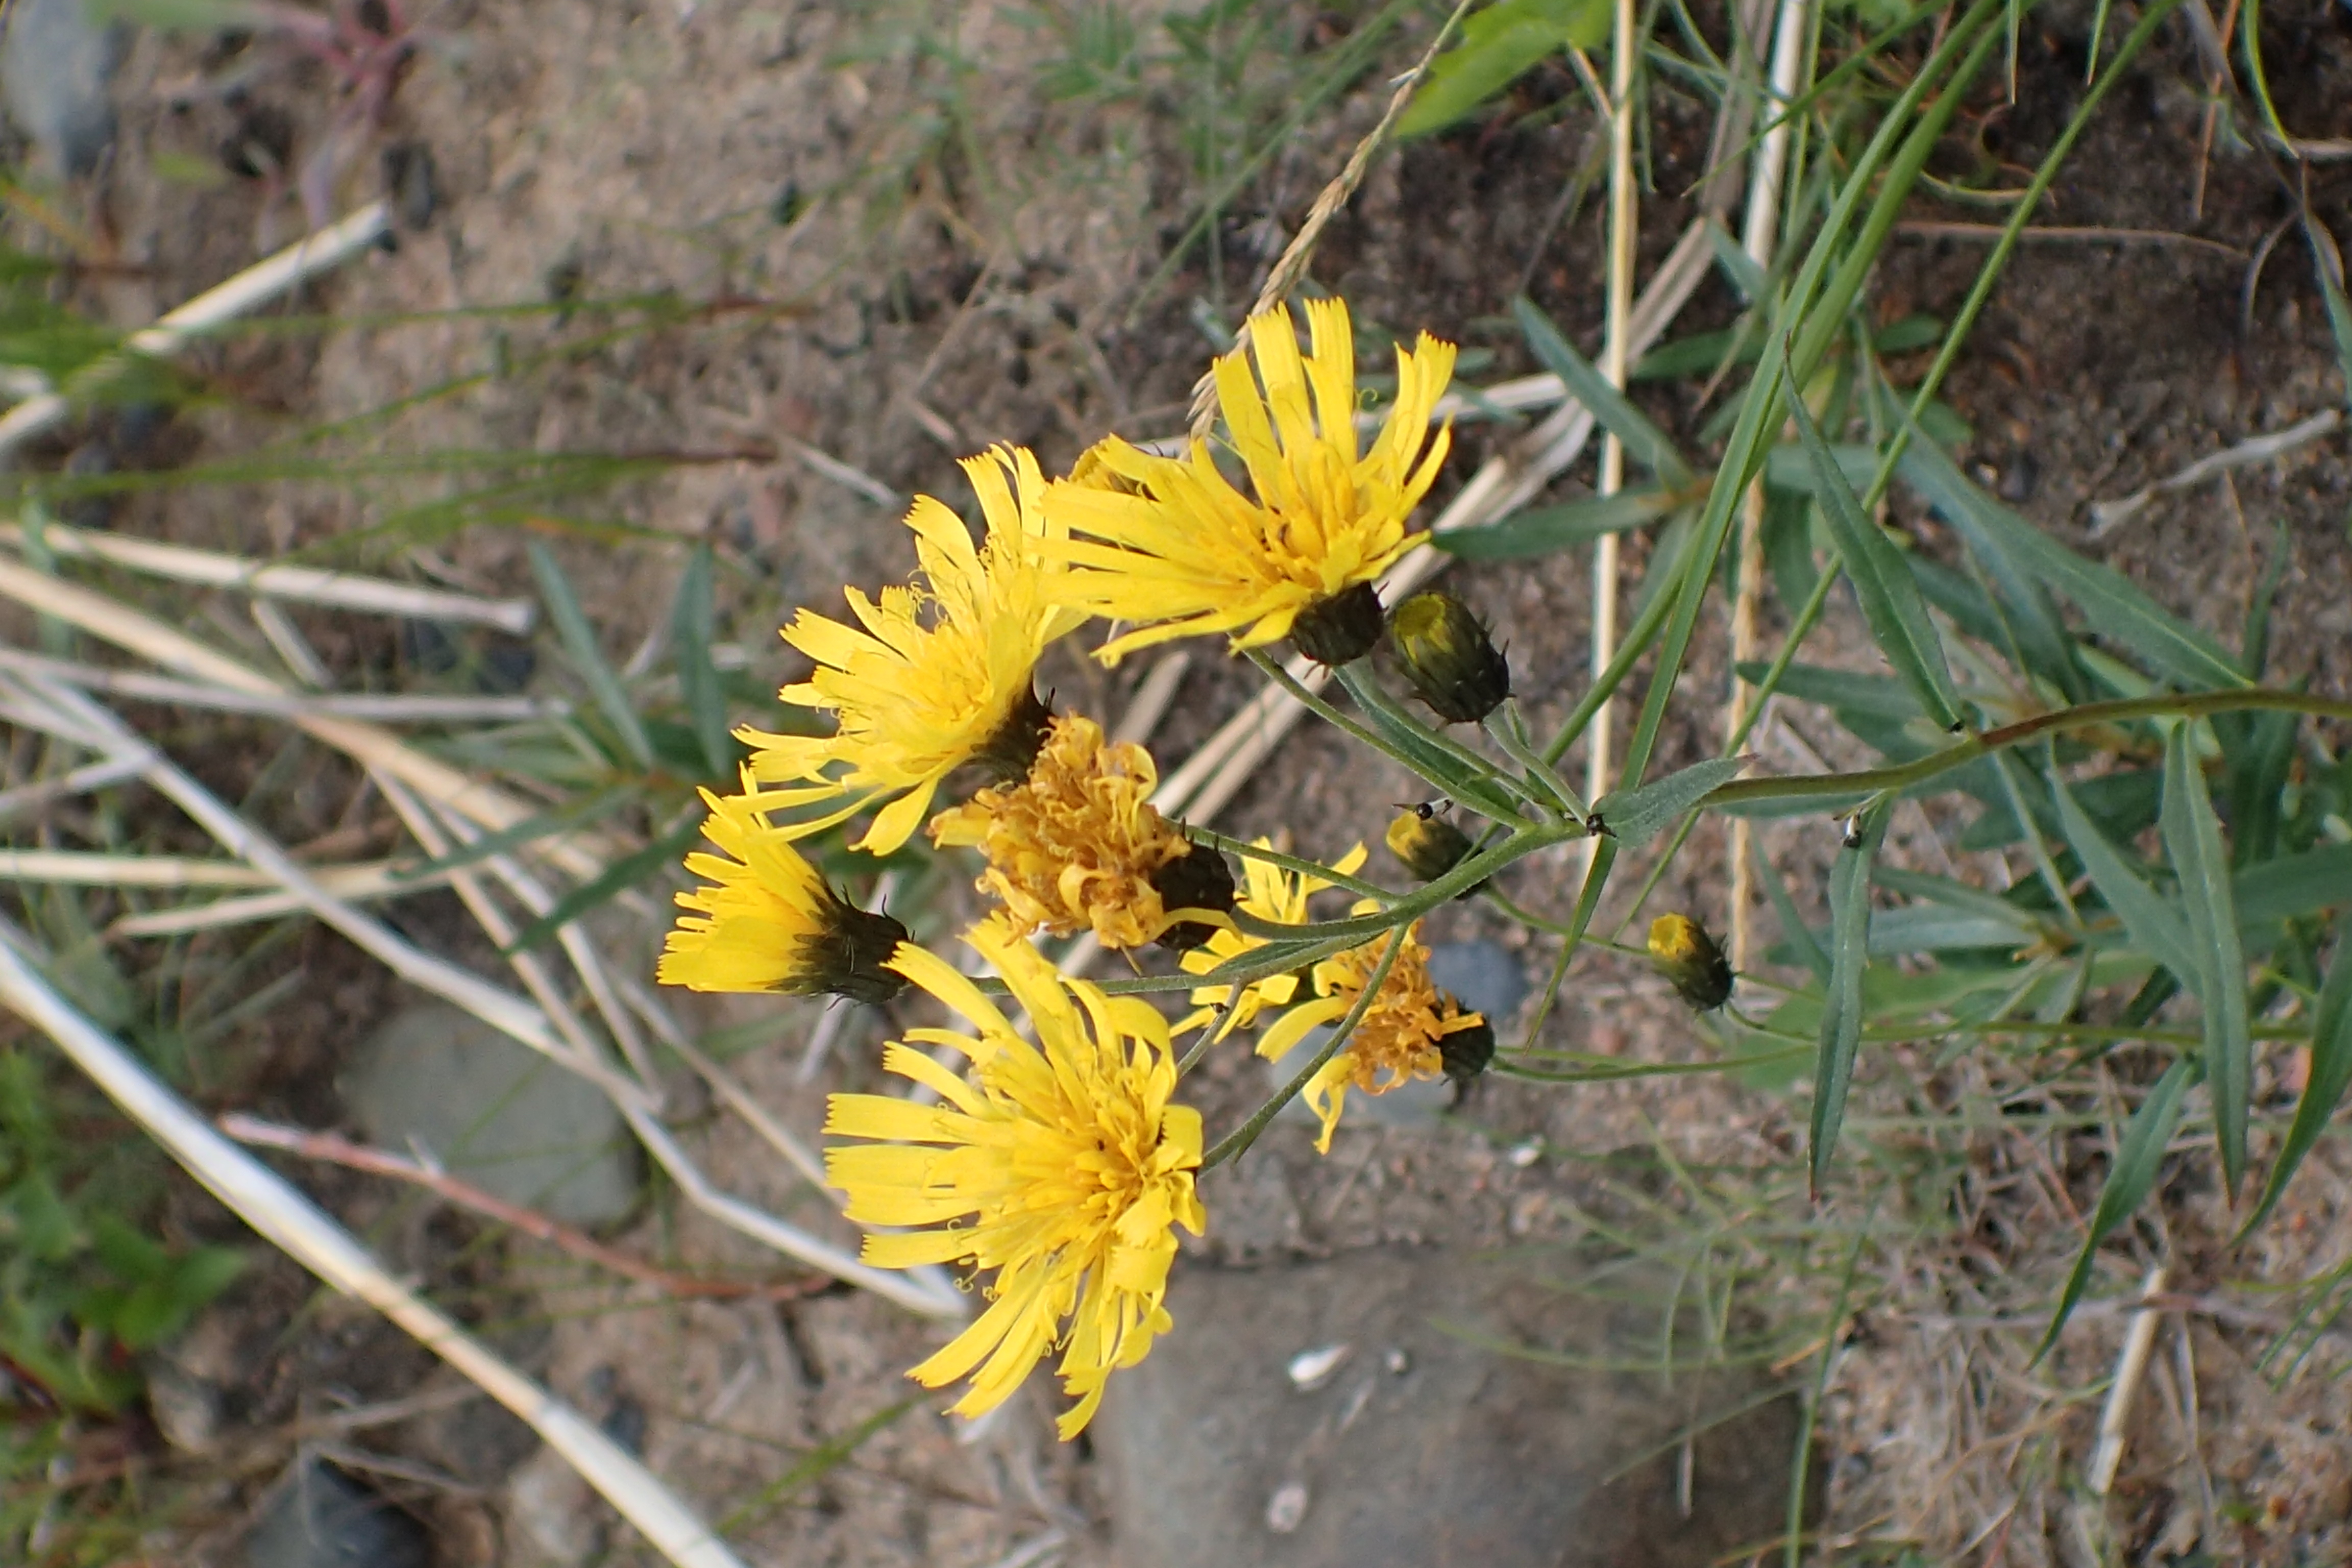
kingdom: Plantae
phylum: Tracheophyta
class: Magnoliopsida
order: Asterales
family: Asteraceae
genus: Hieracium
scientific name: Hieracium umbellatum
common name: Northern hawkweed
